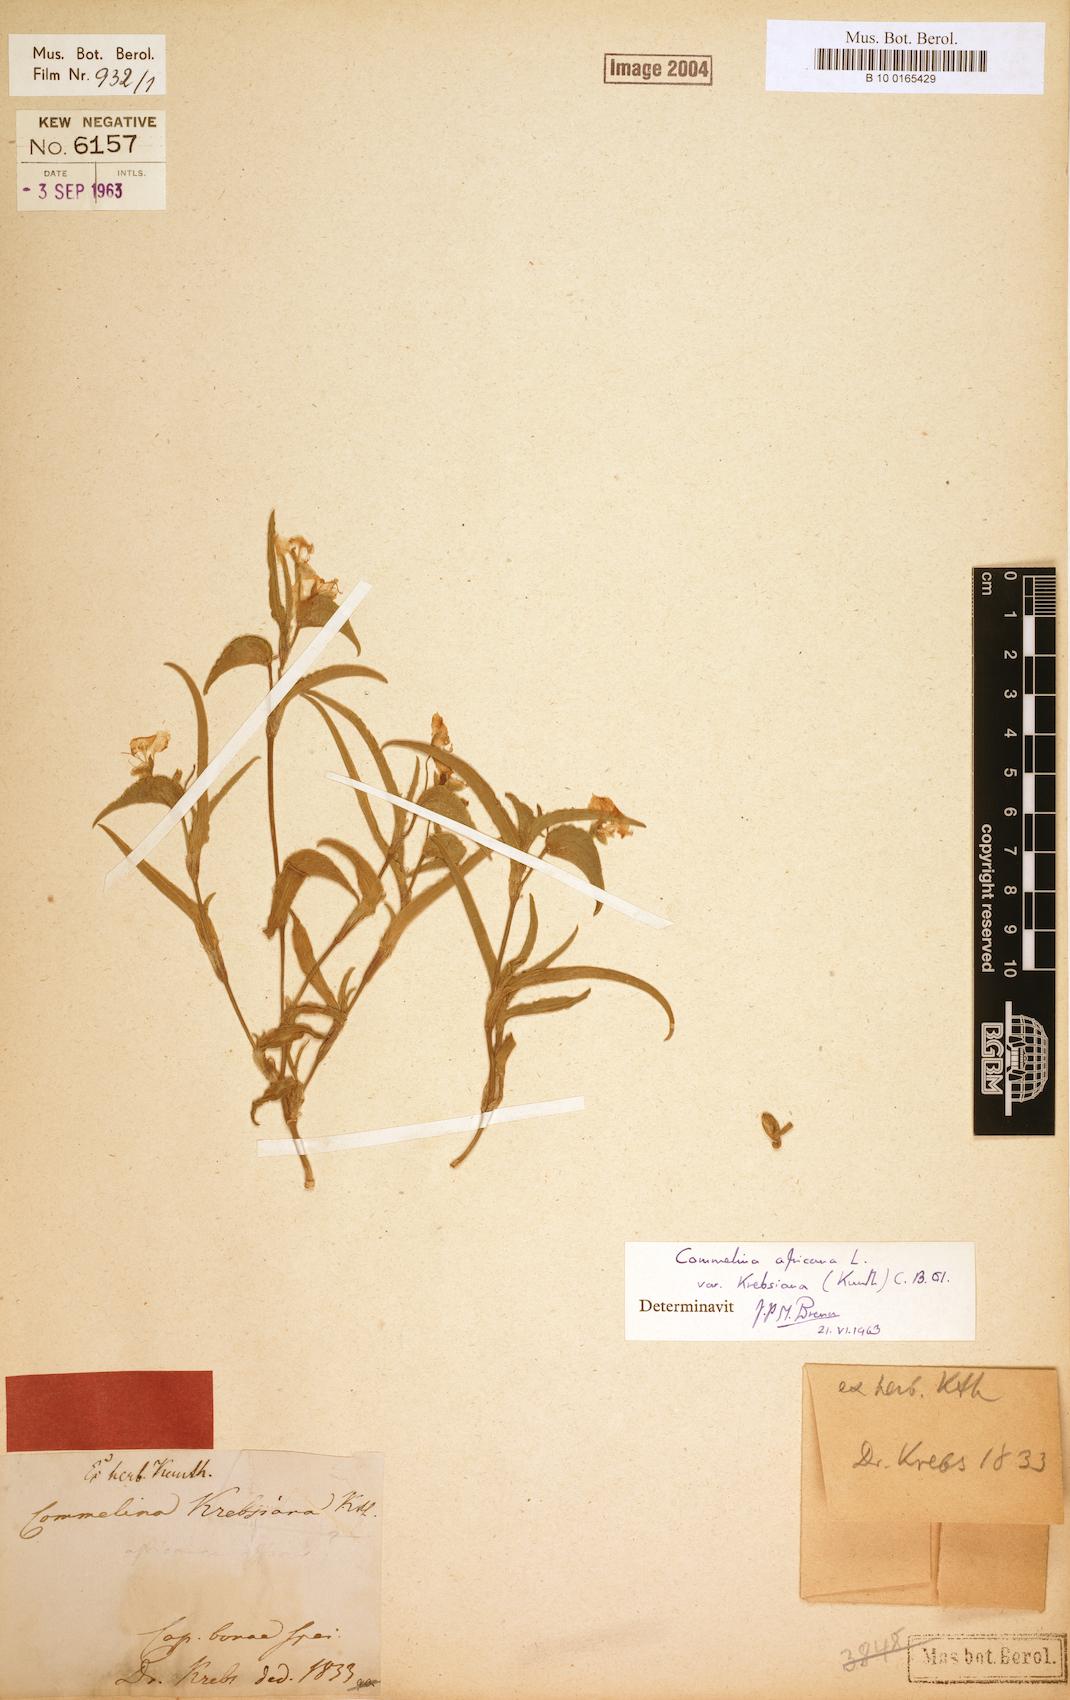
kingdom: Plantae
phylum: Tracheophyta
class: Liliopsida
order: Commelinales
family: Commelinaceae
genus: Commelina
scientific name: Commelina africana
